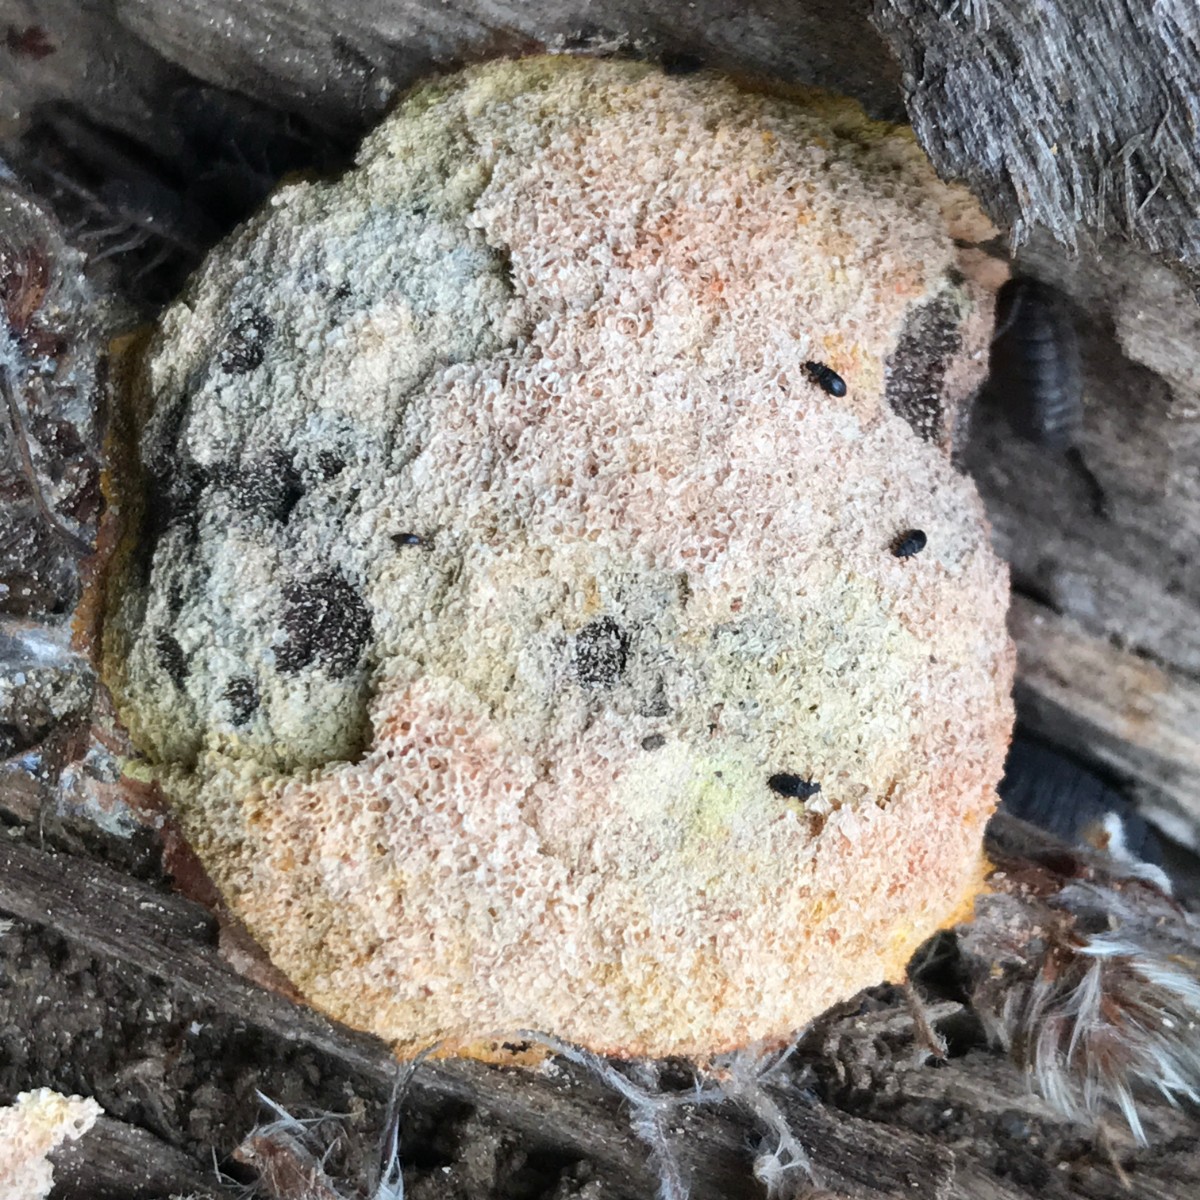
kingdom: Protozoa
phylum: Mycetozoa
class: Myxomycetes
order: Physarales
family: Physaraceae
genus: Fuligo
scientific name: Fuligo septica
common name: Dog vomit slime mold
